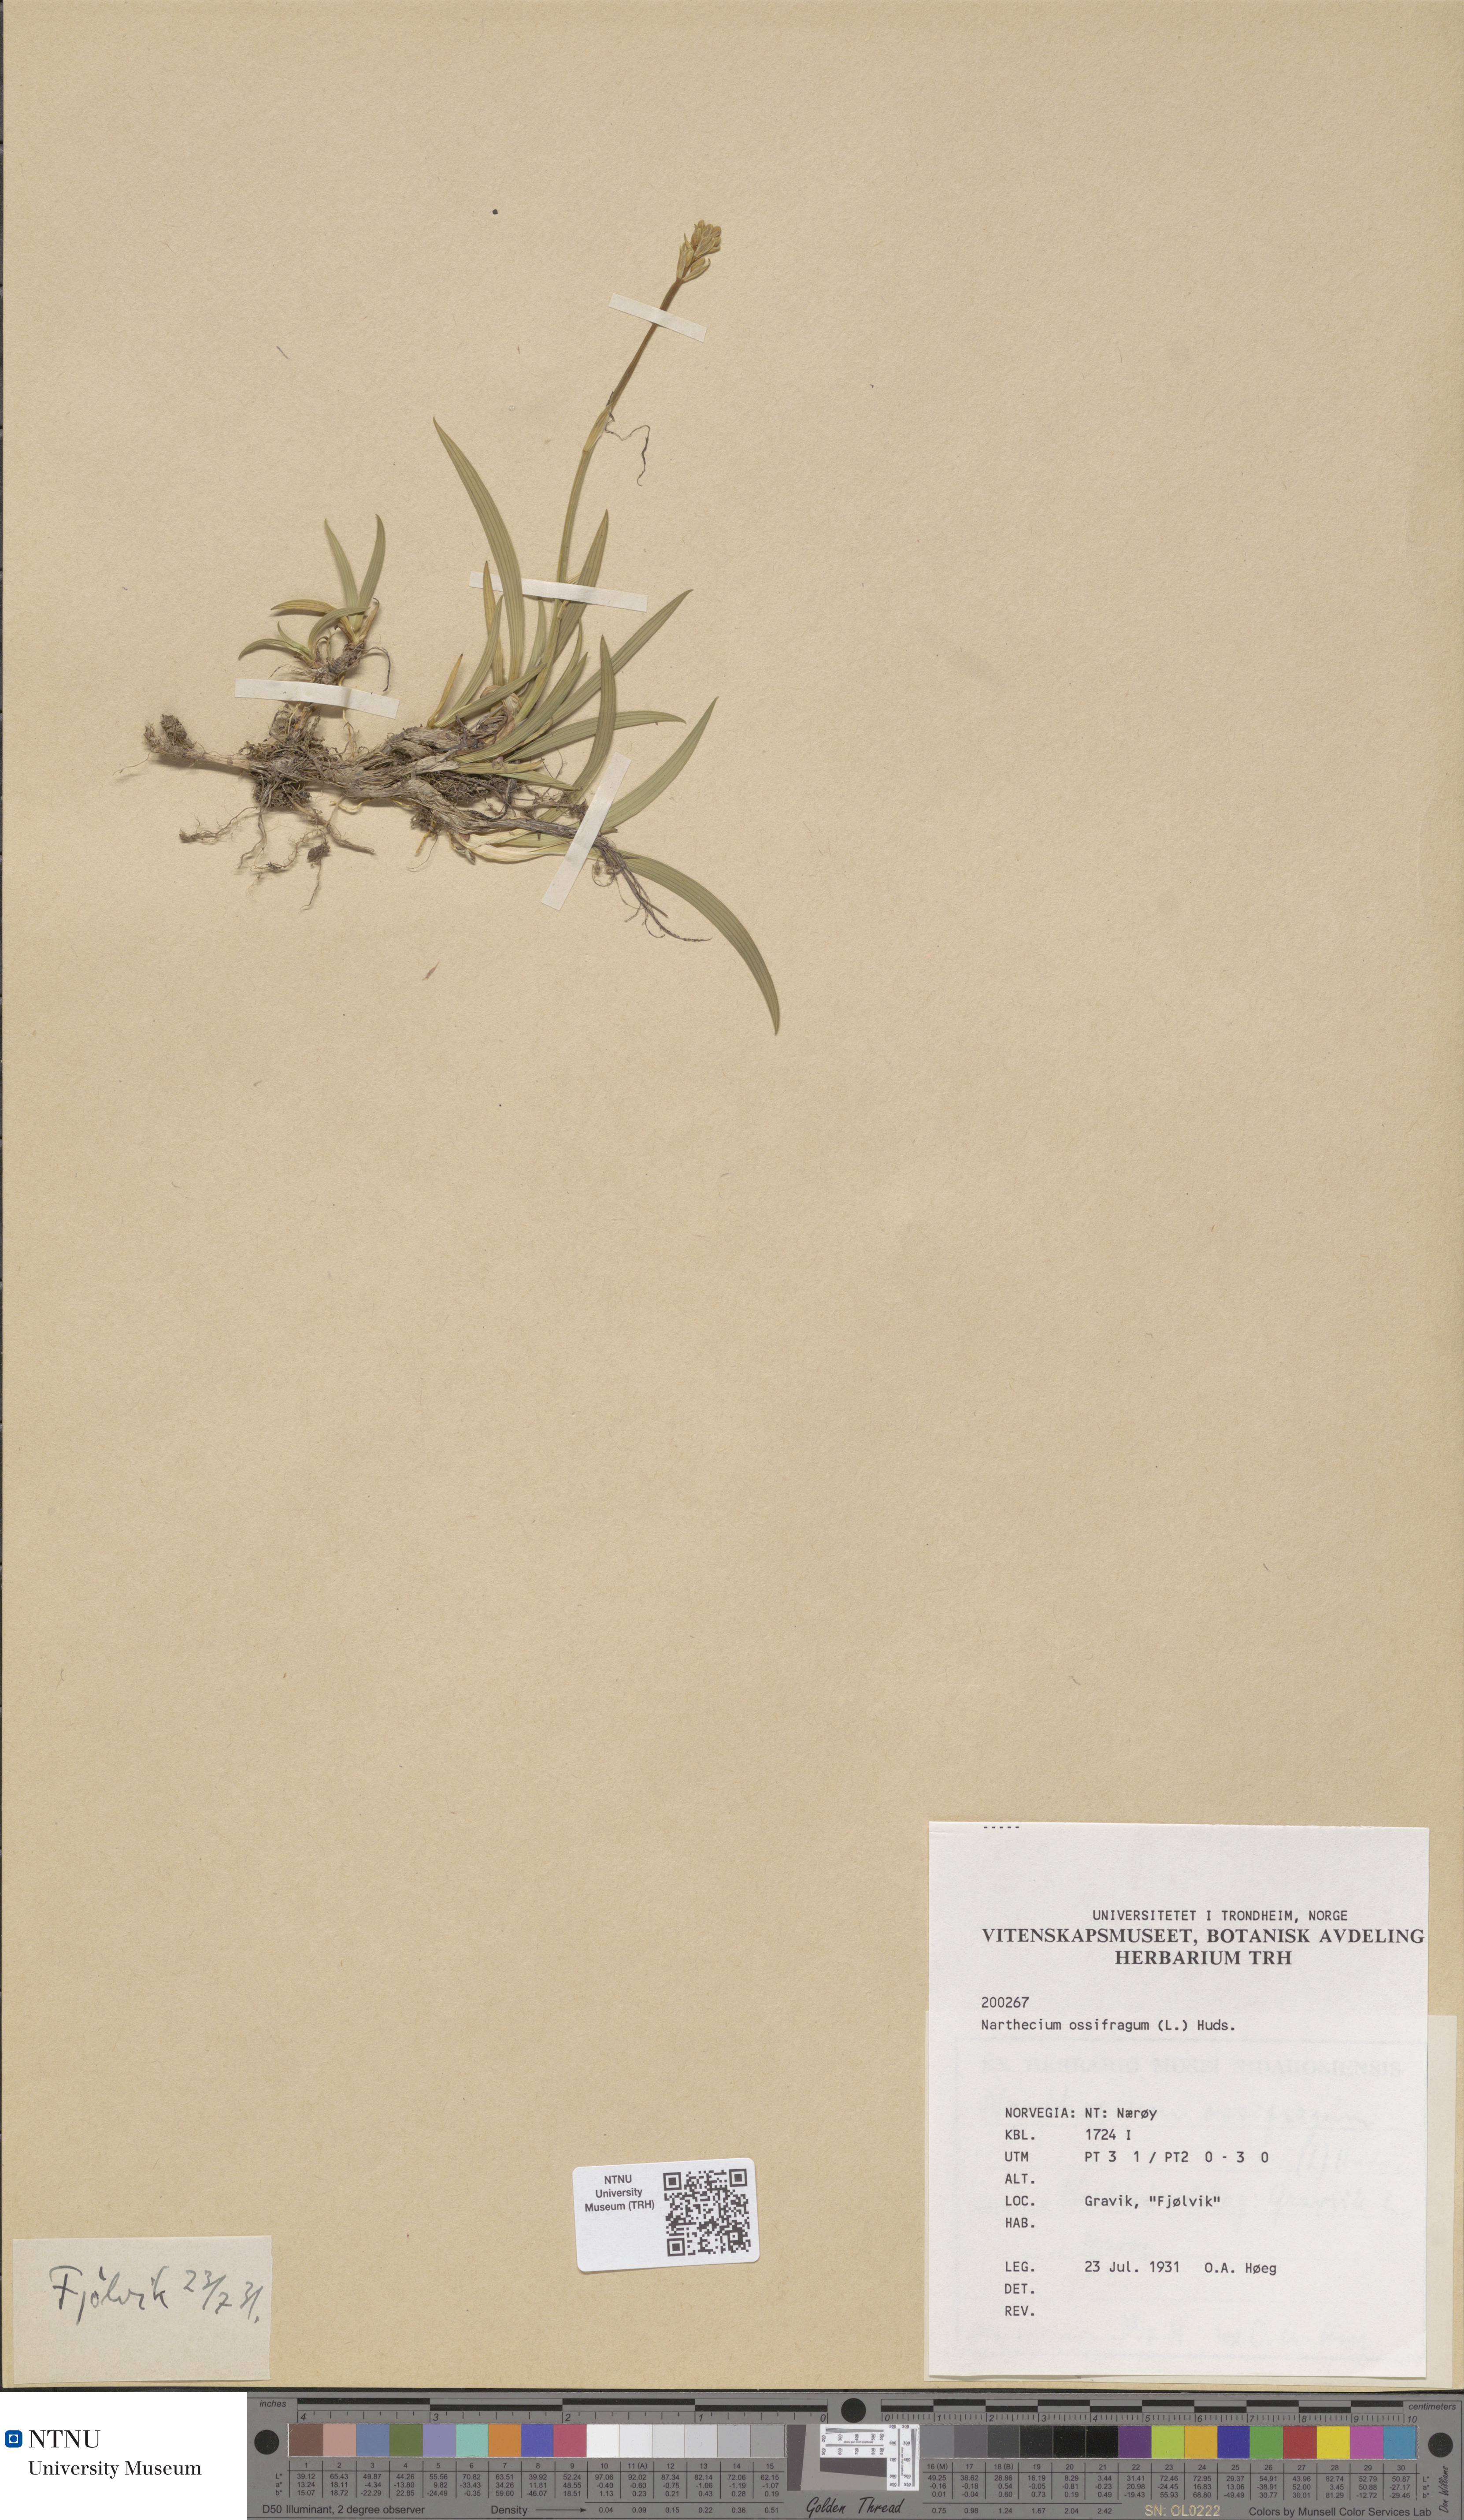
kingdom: Plantae
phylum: Tracheophyta
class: Liliopsida
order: Dioscoreales
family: Nartheciaceae
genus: Narthecium
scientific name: Narthecium ossifragum
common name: Bog asphodel
